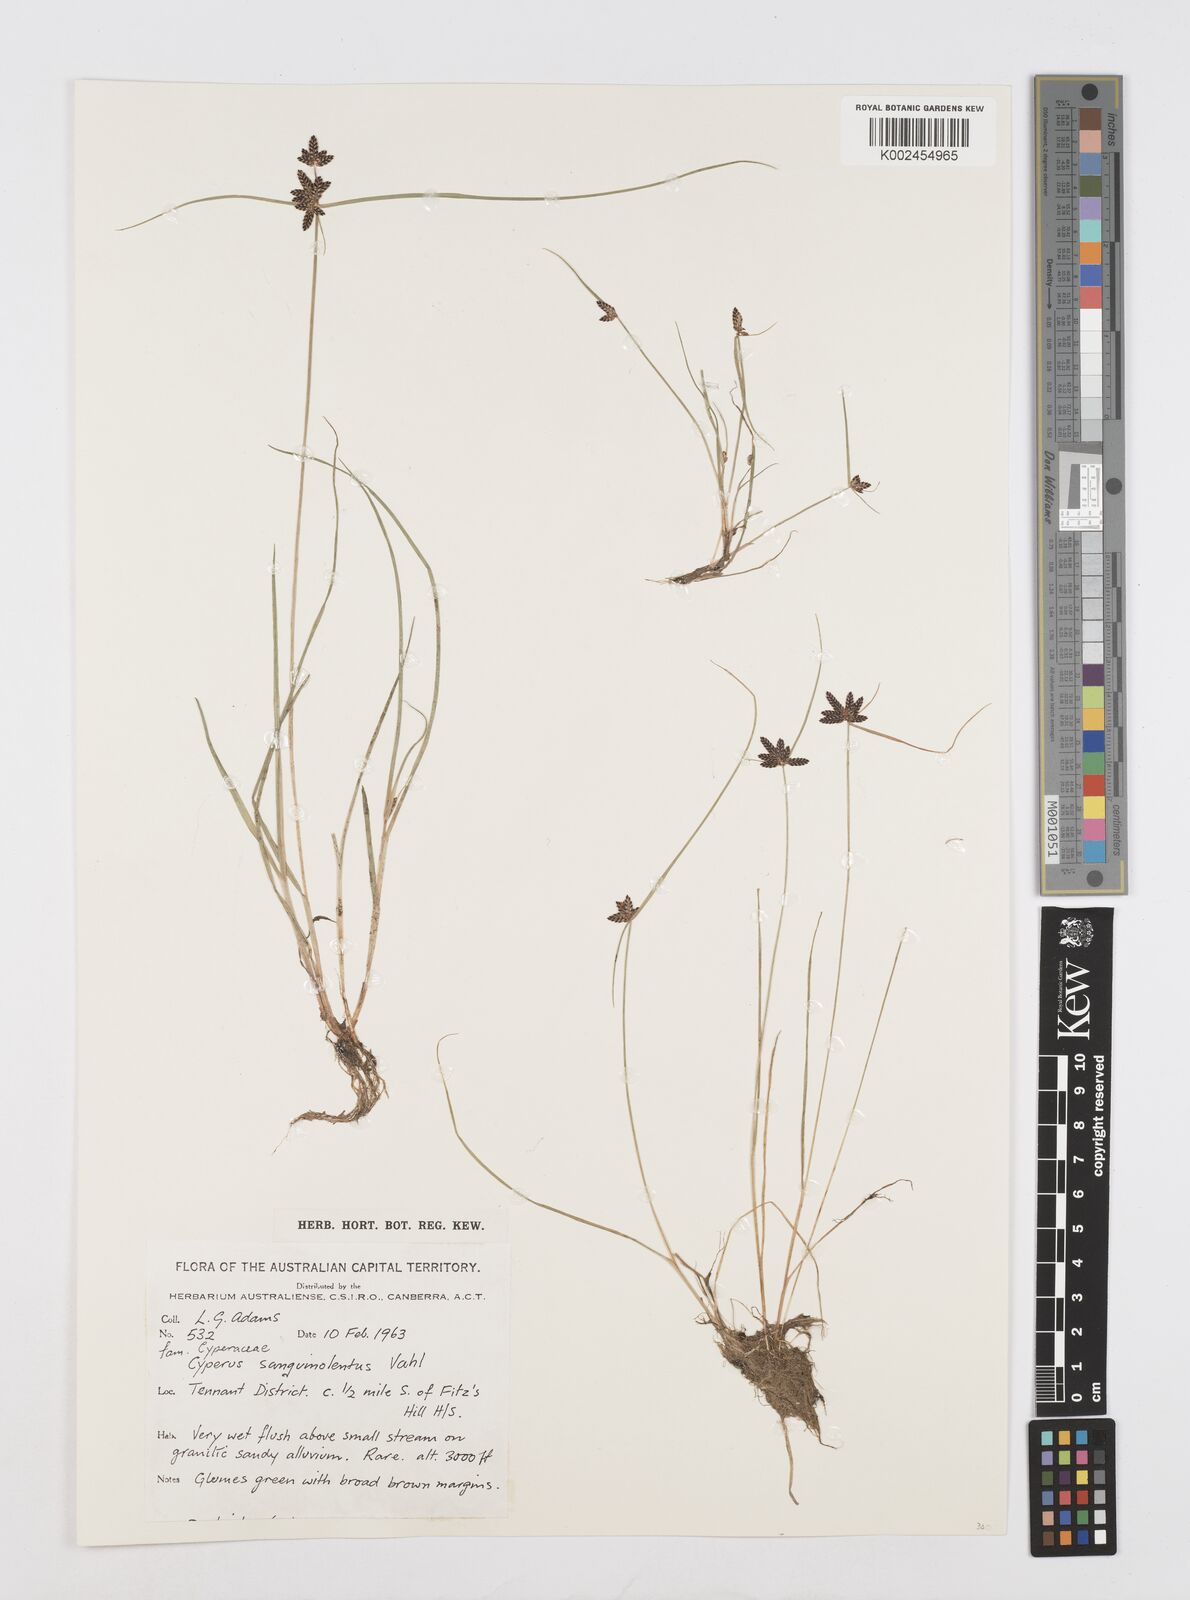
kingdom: Plantae
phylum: Tracheophyta
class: Liliopsida
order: Poales
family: Cyperaceae
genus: Cyperus
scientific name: Cyperus sanguinolentus
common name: Purpleglume flatsedge
